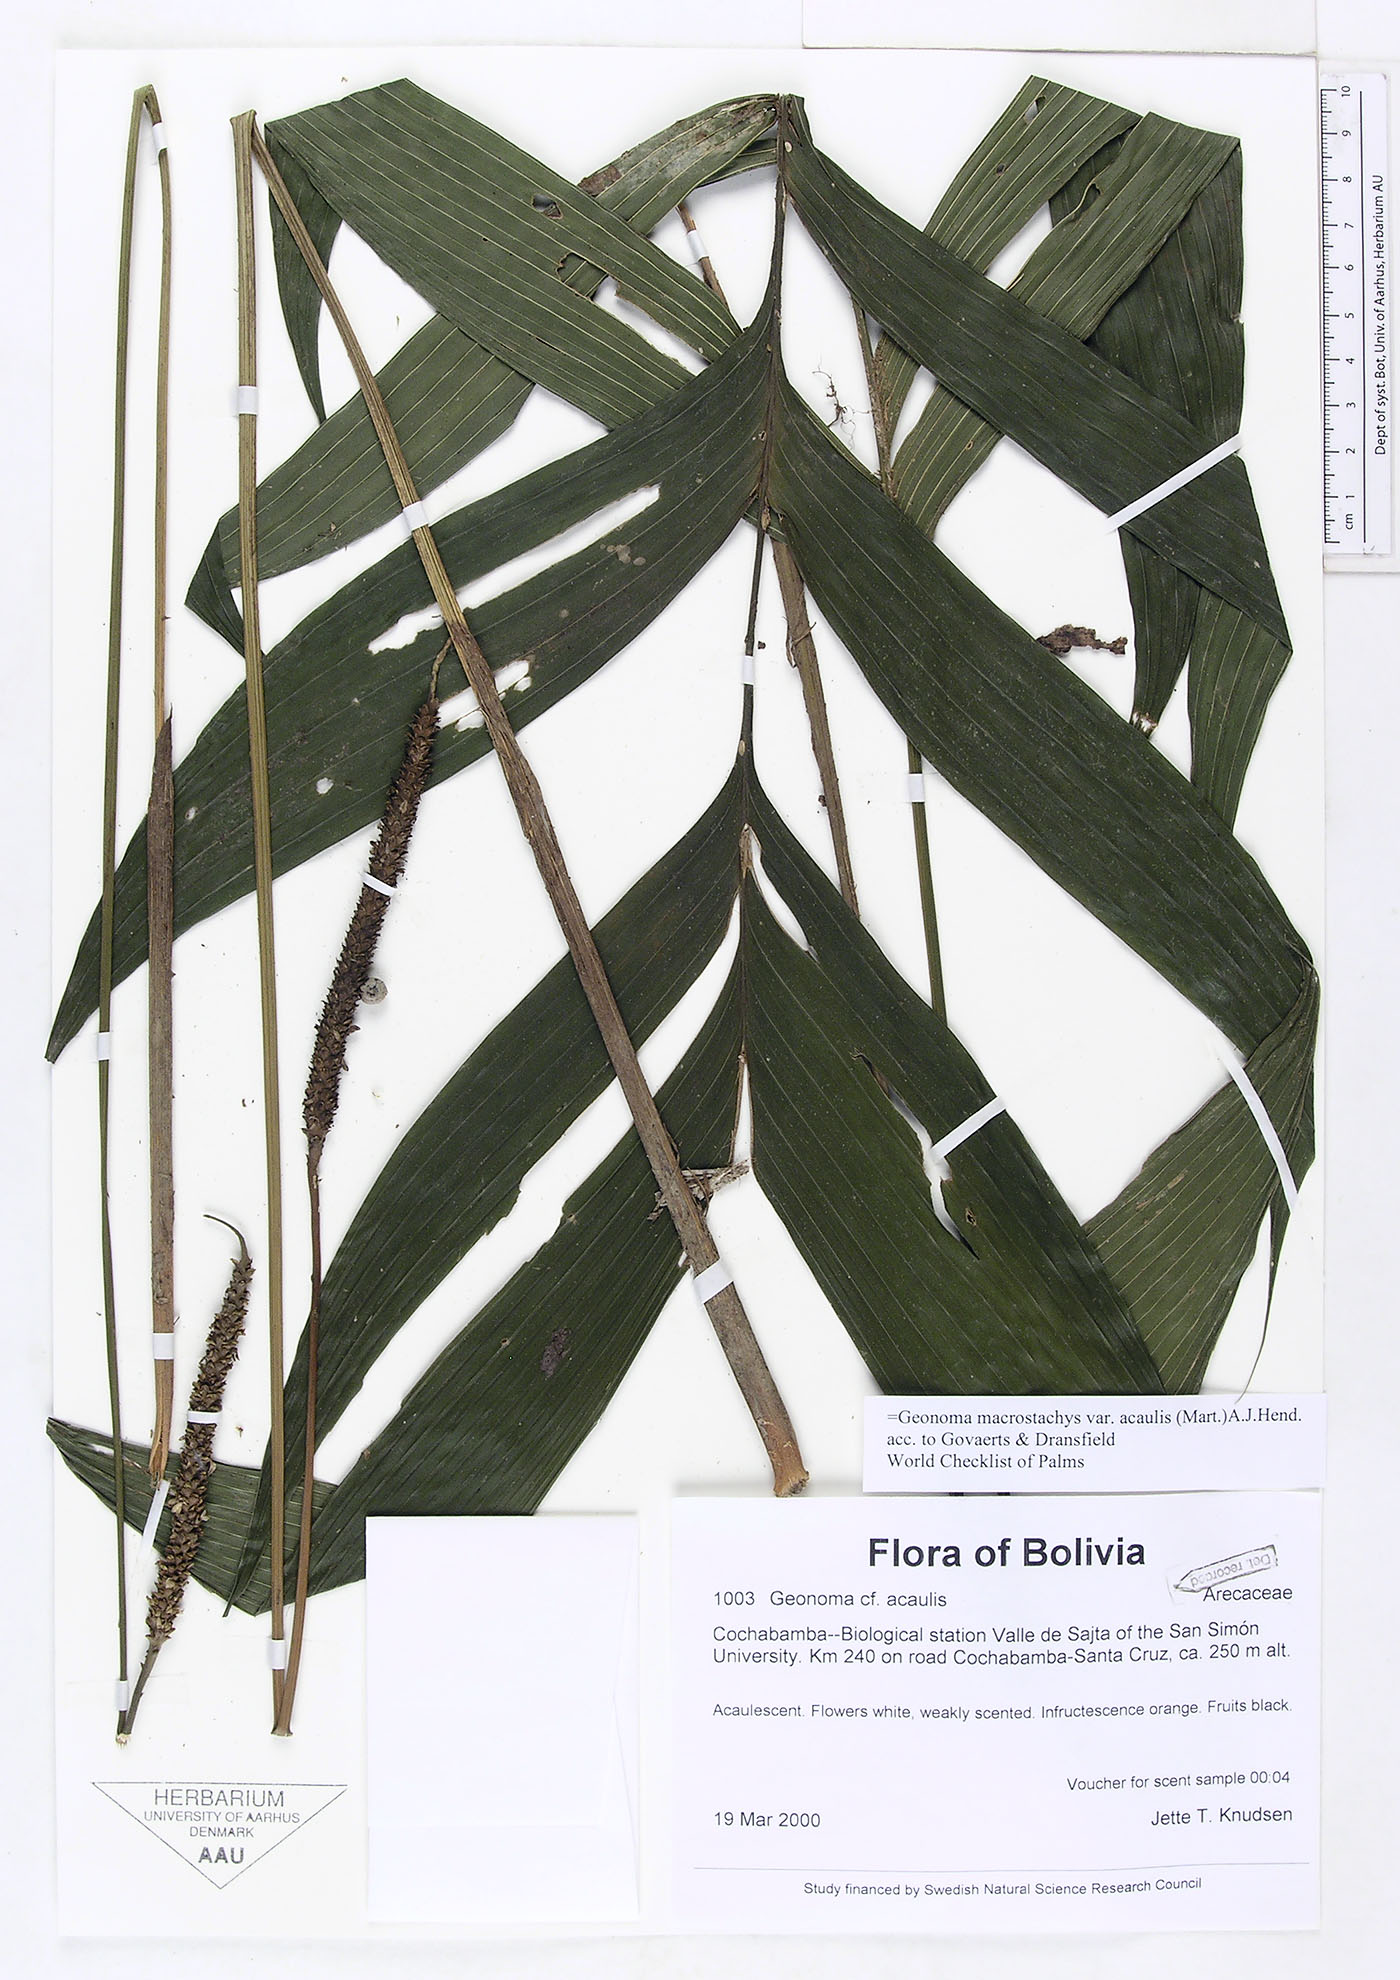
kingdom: Plantae
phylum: Tracheophyta
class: Liliopsida
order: Arecales
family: Arecaceae
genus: Geonoma
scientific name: Geonoma macrostachys
